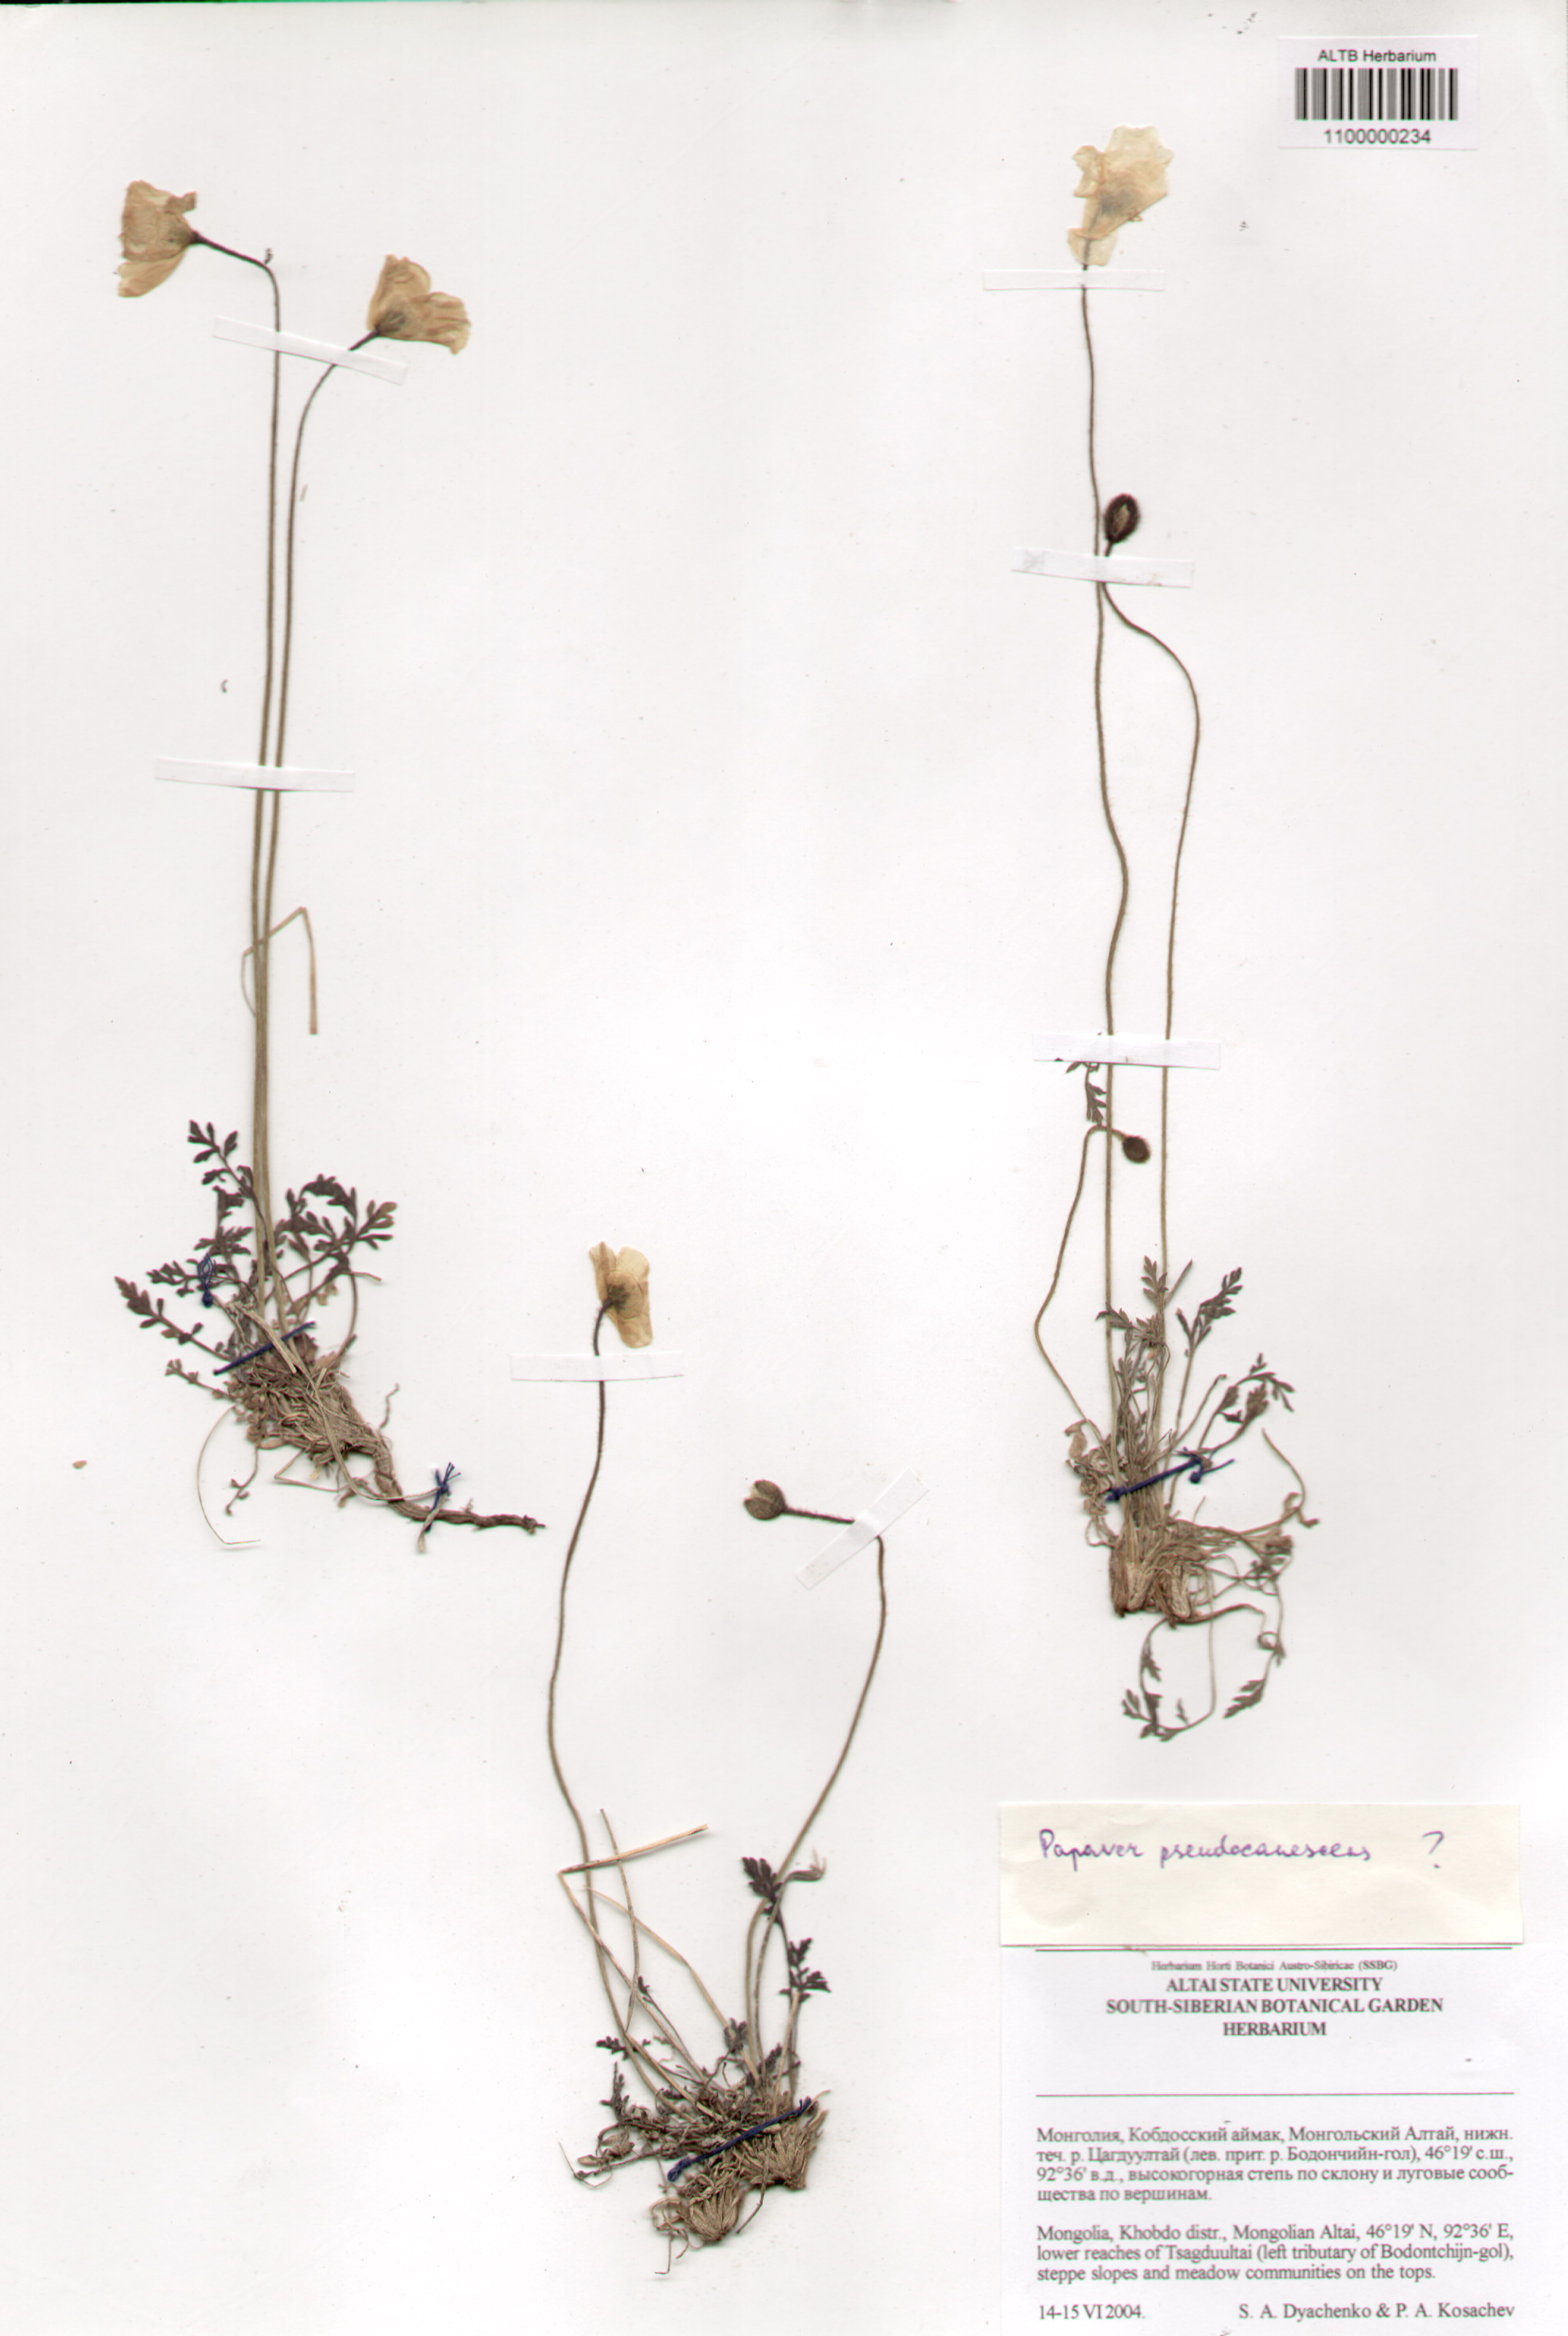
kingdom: Plantae
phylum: Tracheophyta
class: Magnoliopsida
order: Ranunculales
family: Papaveraceae
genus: Papaver
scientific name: Papaver canescens
